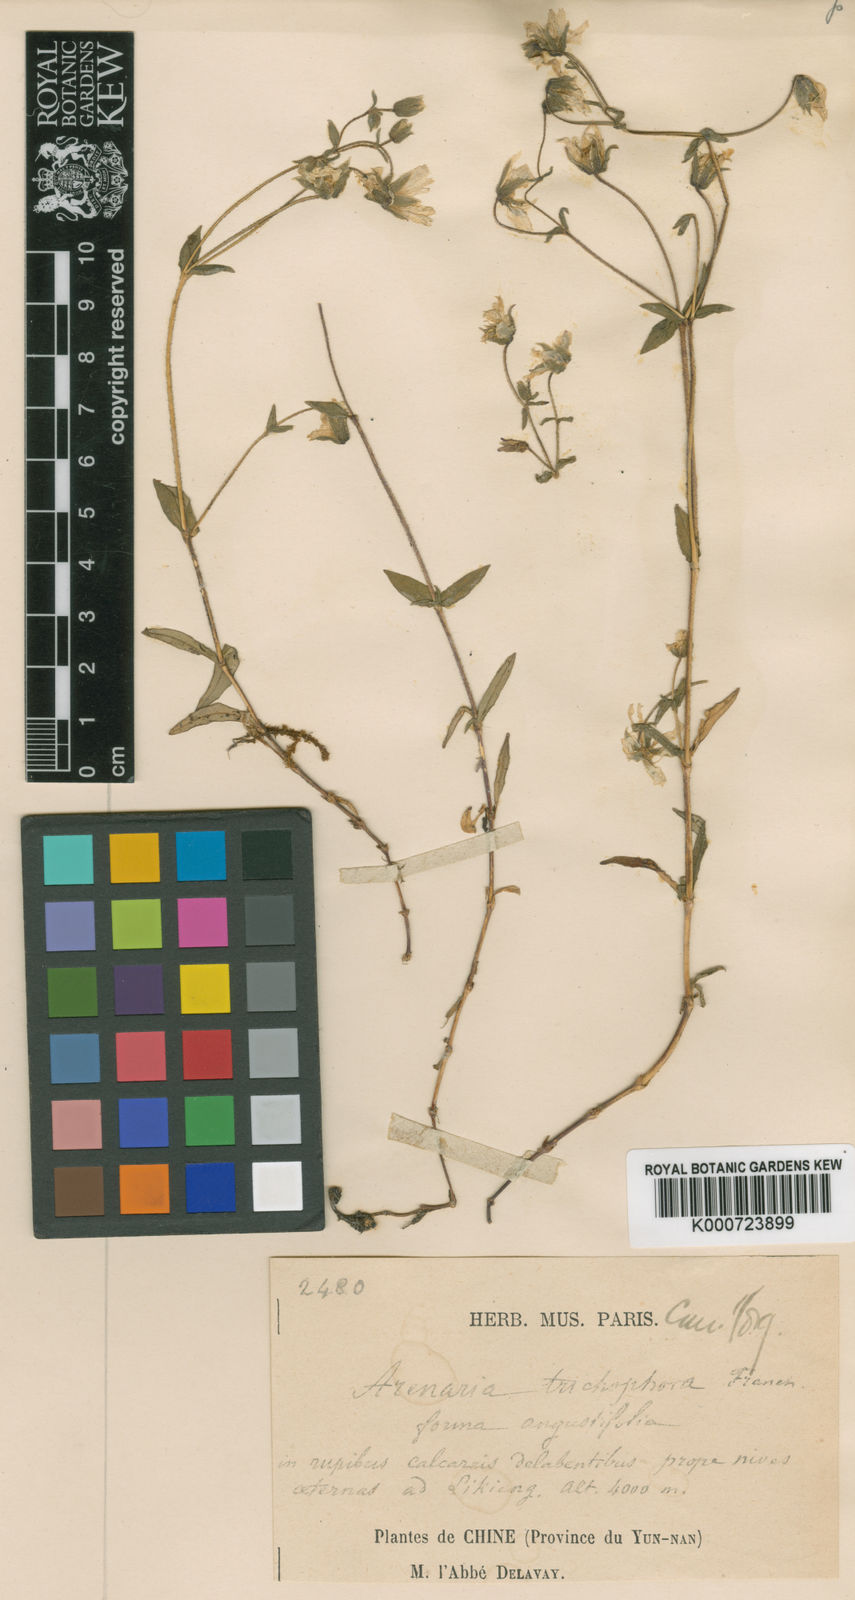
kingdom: Plantae
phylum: Tracheophyta
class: Magnoliopsida
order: Caryophyllales
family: Caryophyllaceae
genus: Arenaria
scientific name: Arenaria
